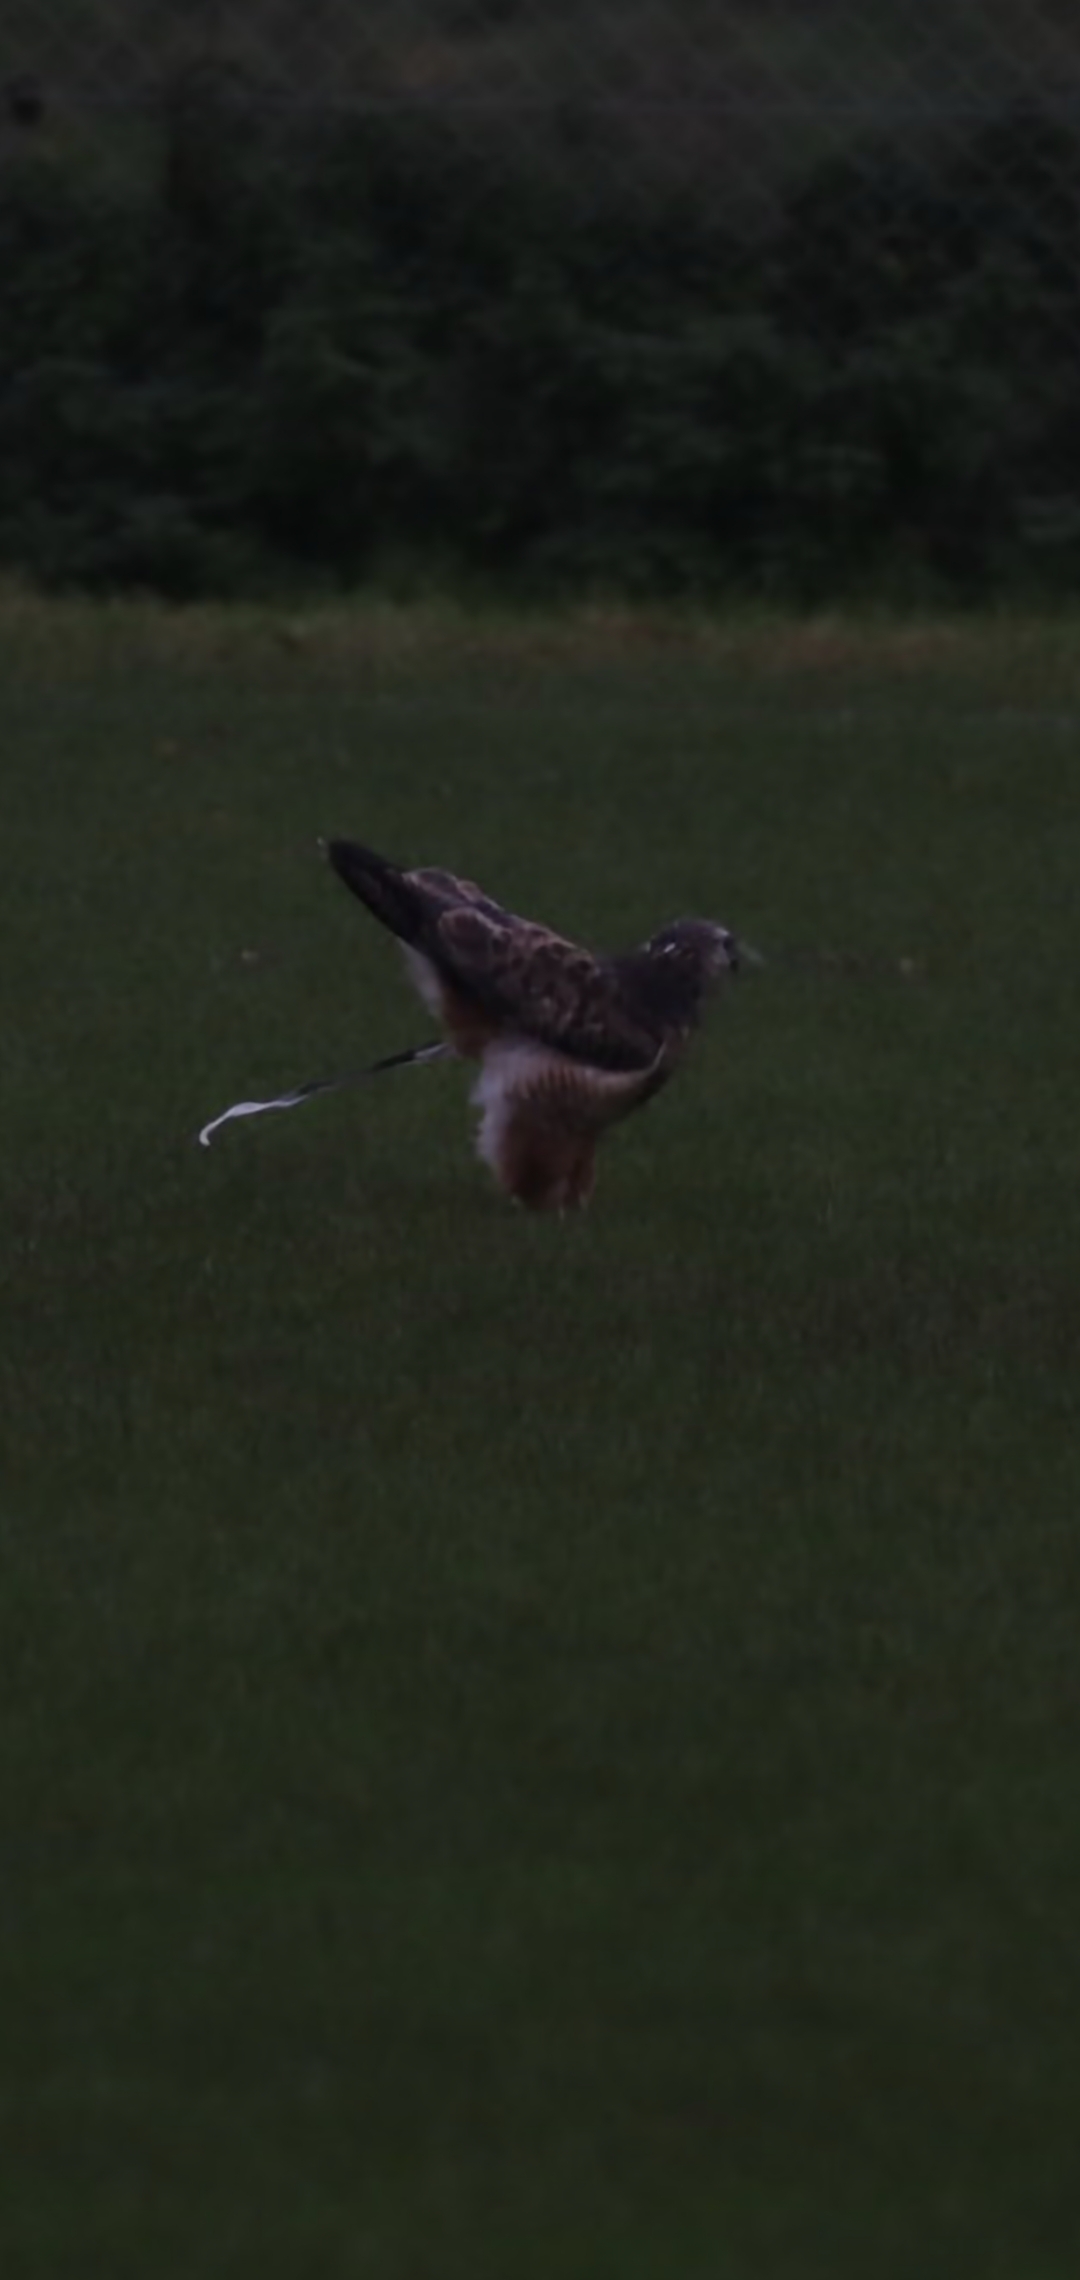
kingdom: Animalia
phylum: Chordata
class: Aves
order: Accipitriformes
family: Accipitridae
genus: Buteo
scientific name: Buteo buteo
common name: Musvåge
